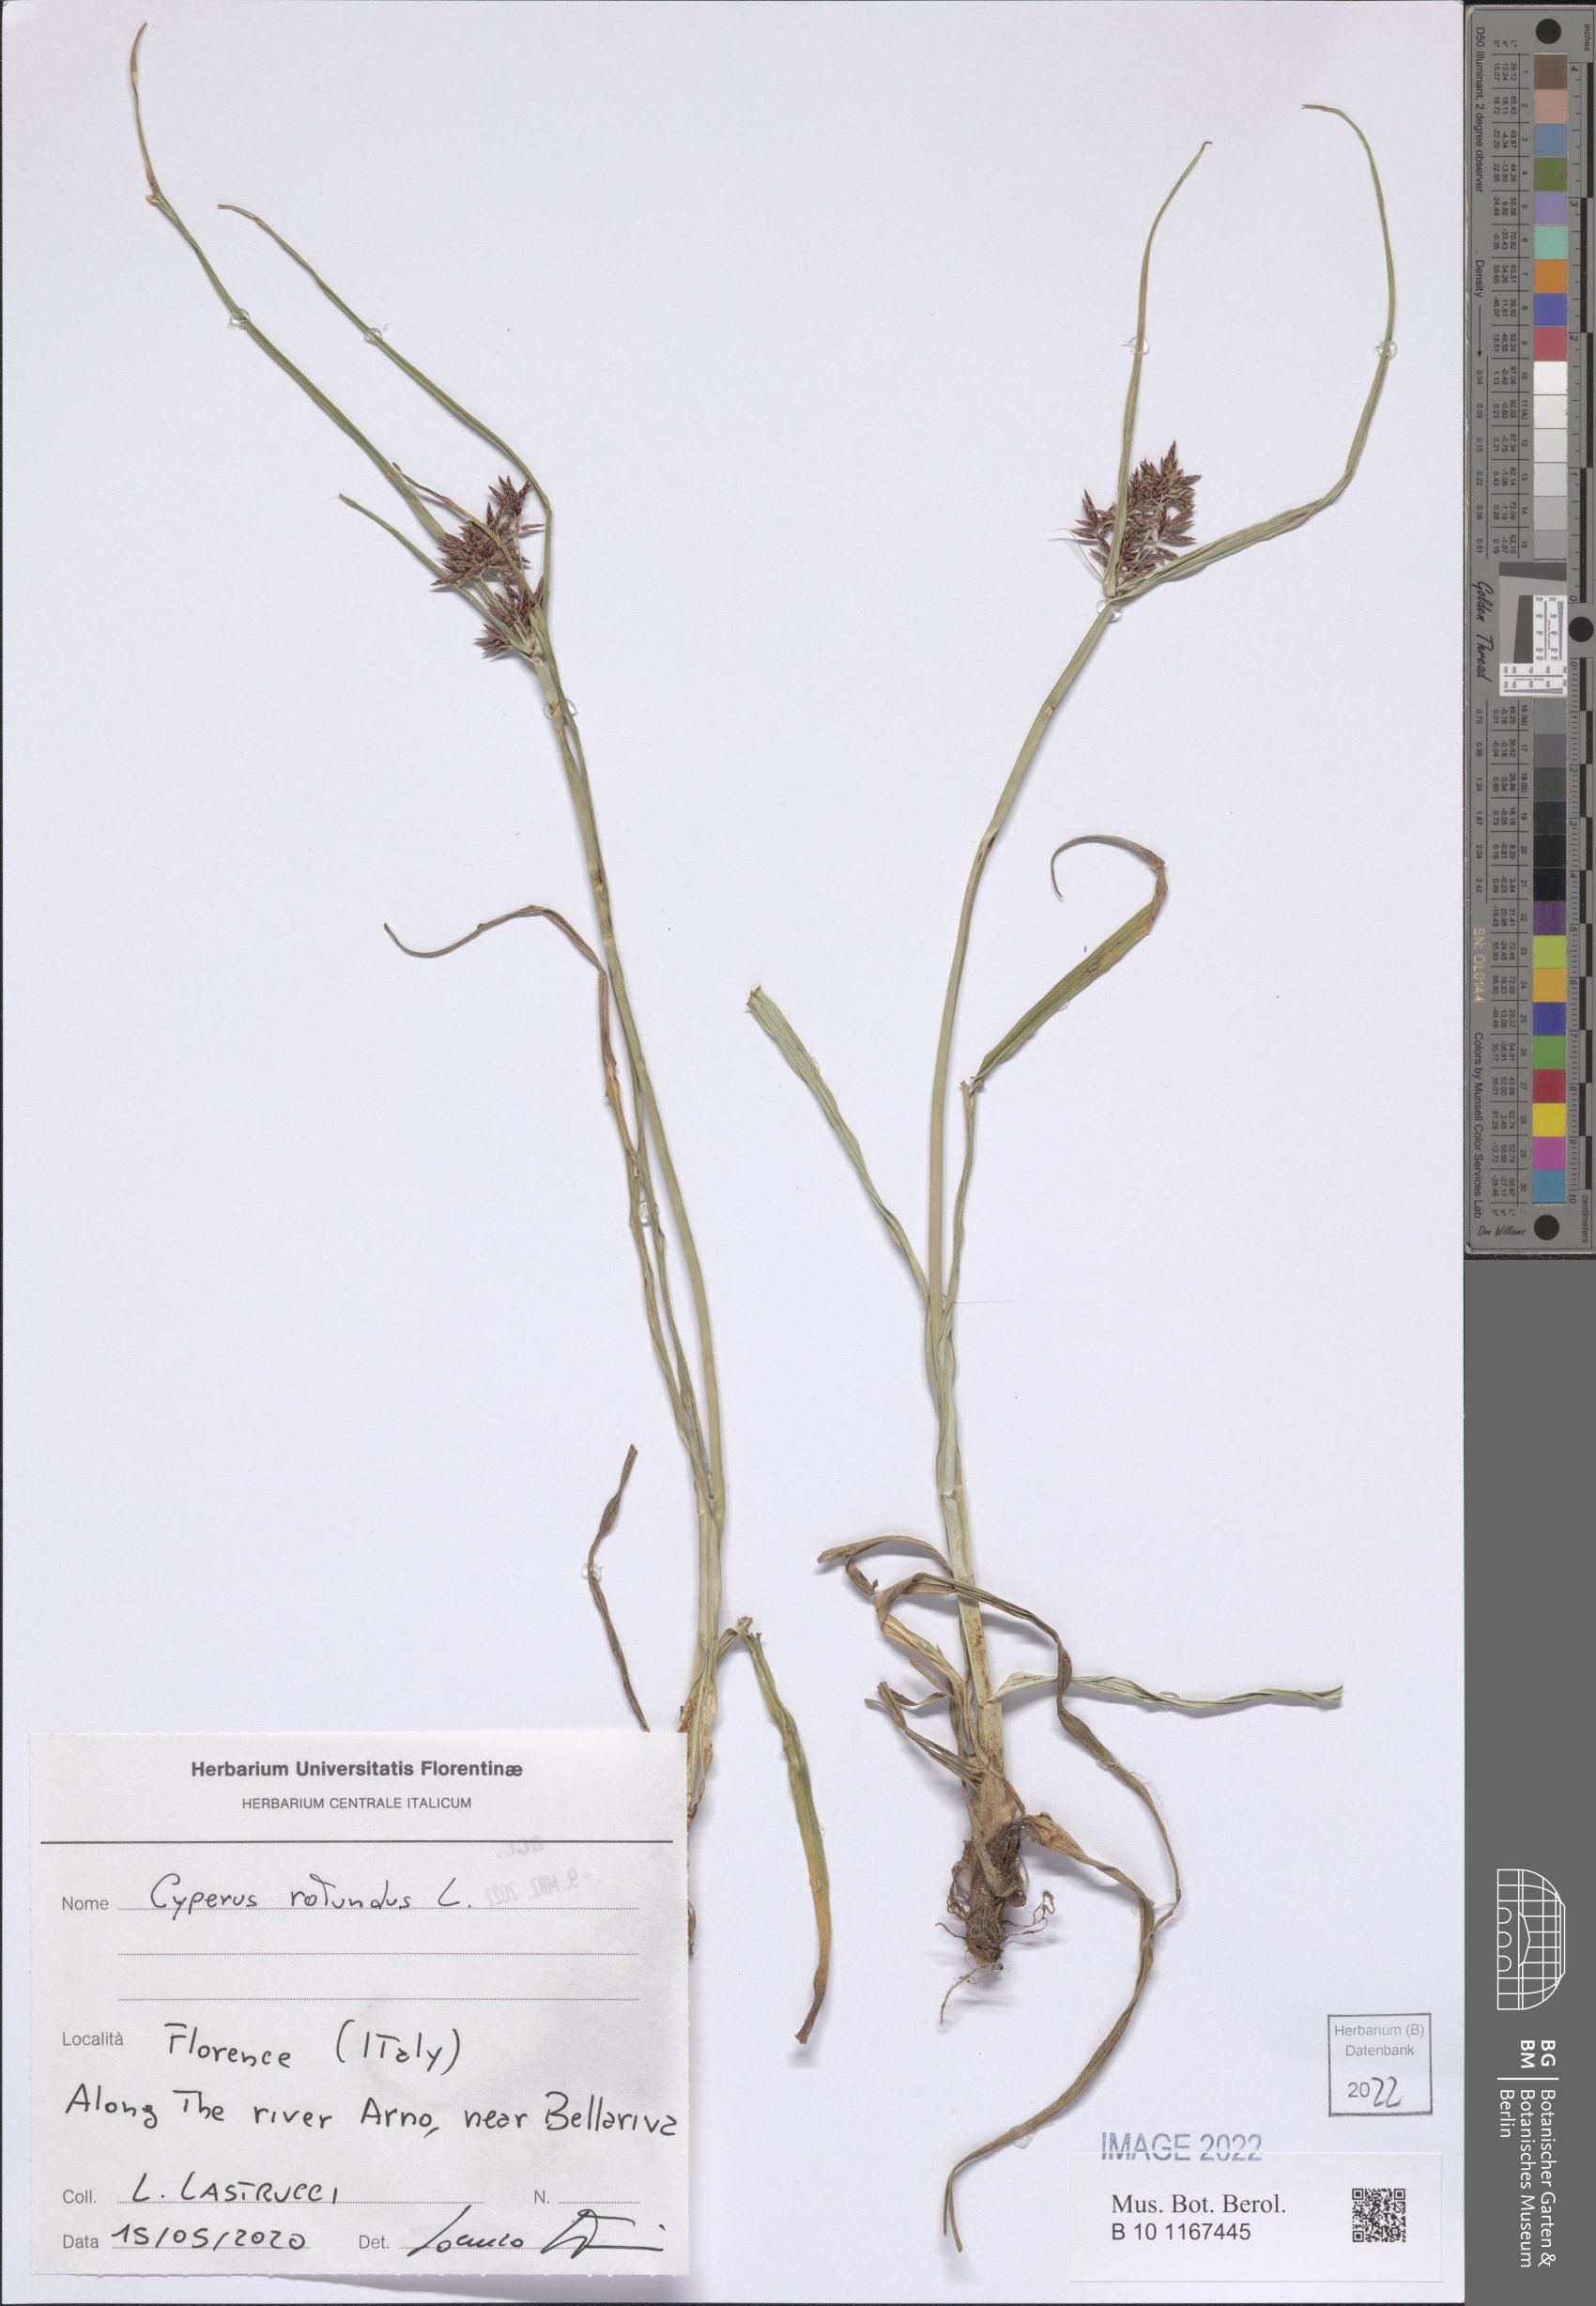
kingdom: Plantae
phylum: Tracheophyta
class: Liliopsida
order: Poales
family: Cyperaceae
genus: Cyperus
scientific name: Cyperus rotundus
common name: Nutgrass
